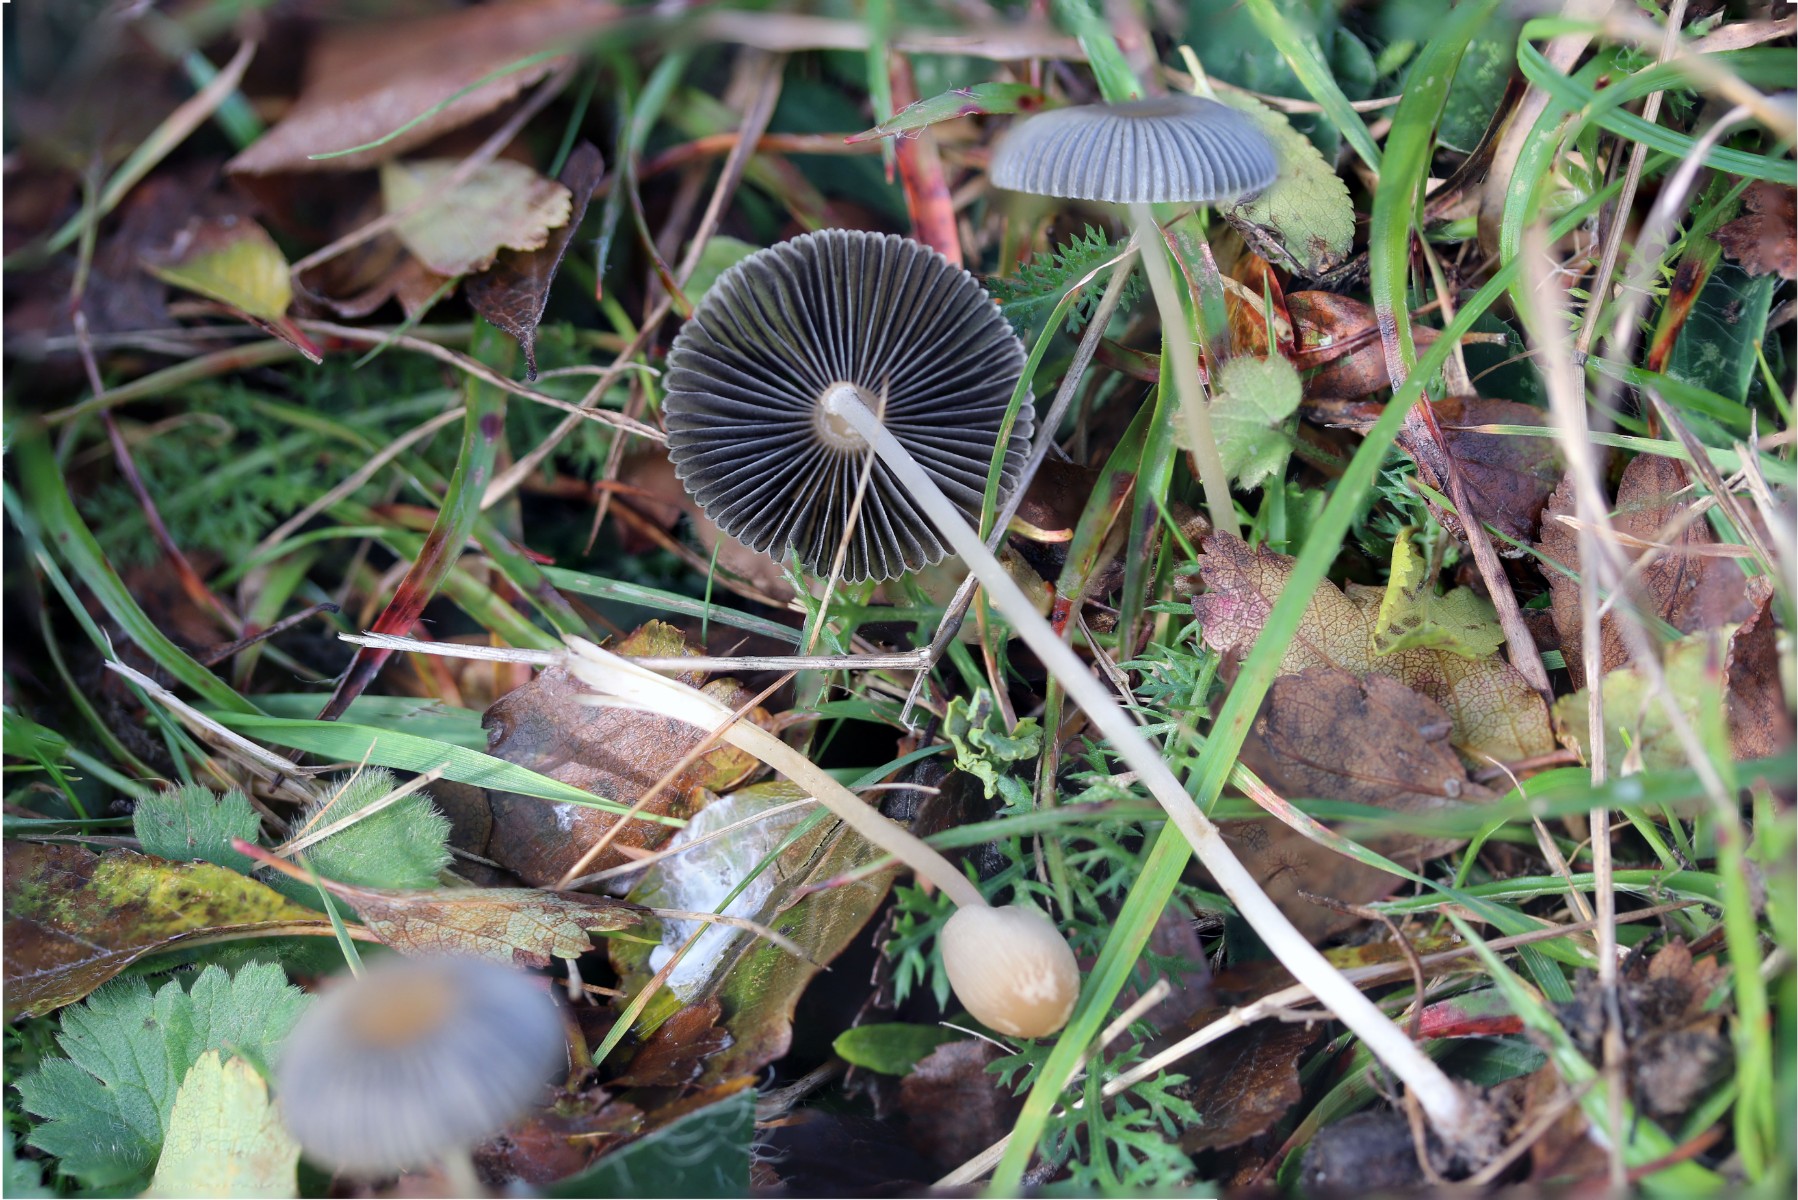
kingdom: Fungi
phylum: Basidiomycota
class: Agaricomycetes
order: Agaricales
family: Psathyrellaceae
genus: Parasola
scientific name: Parasola
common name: hjulhat
